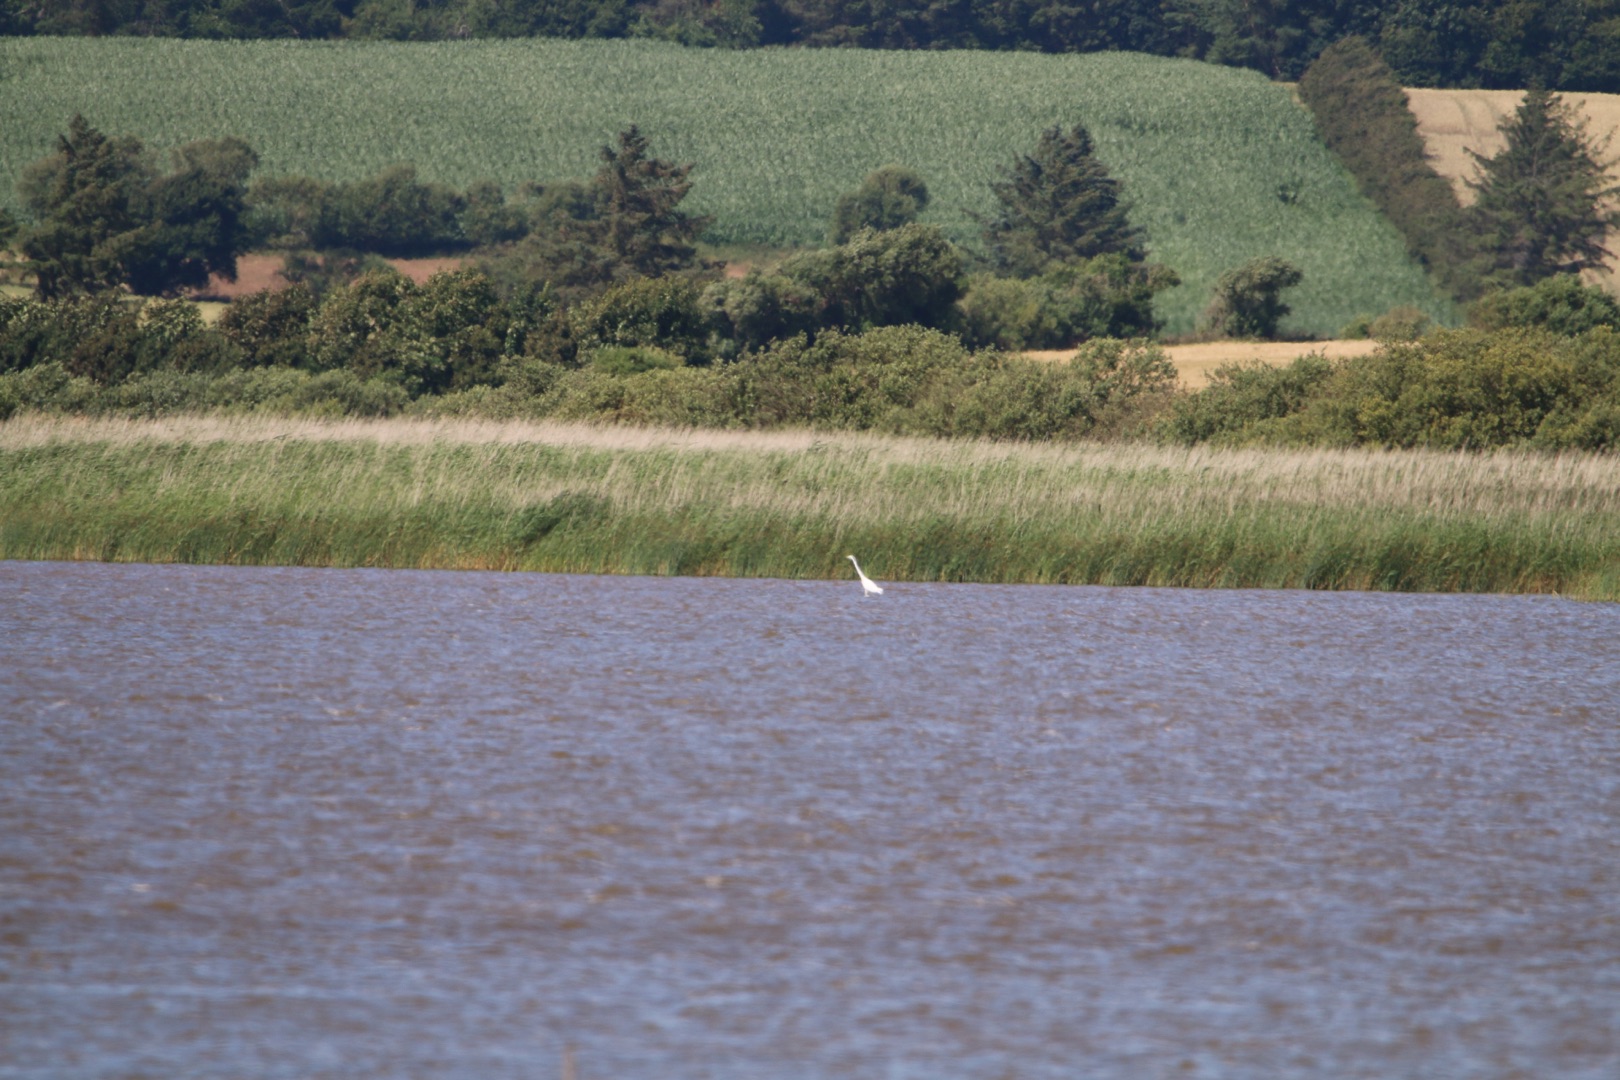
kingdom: Animalia
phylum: Chordata
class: Aves
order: Pelecaniformes
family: Ardeidae
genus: Ardea
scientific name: Ardea alba
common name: Sølvhejre
